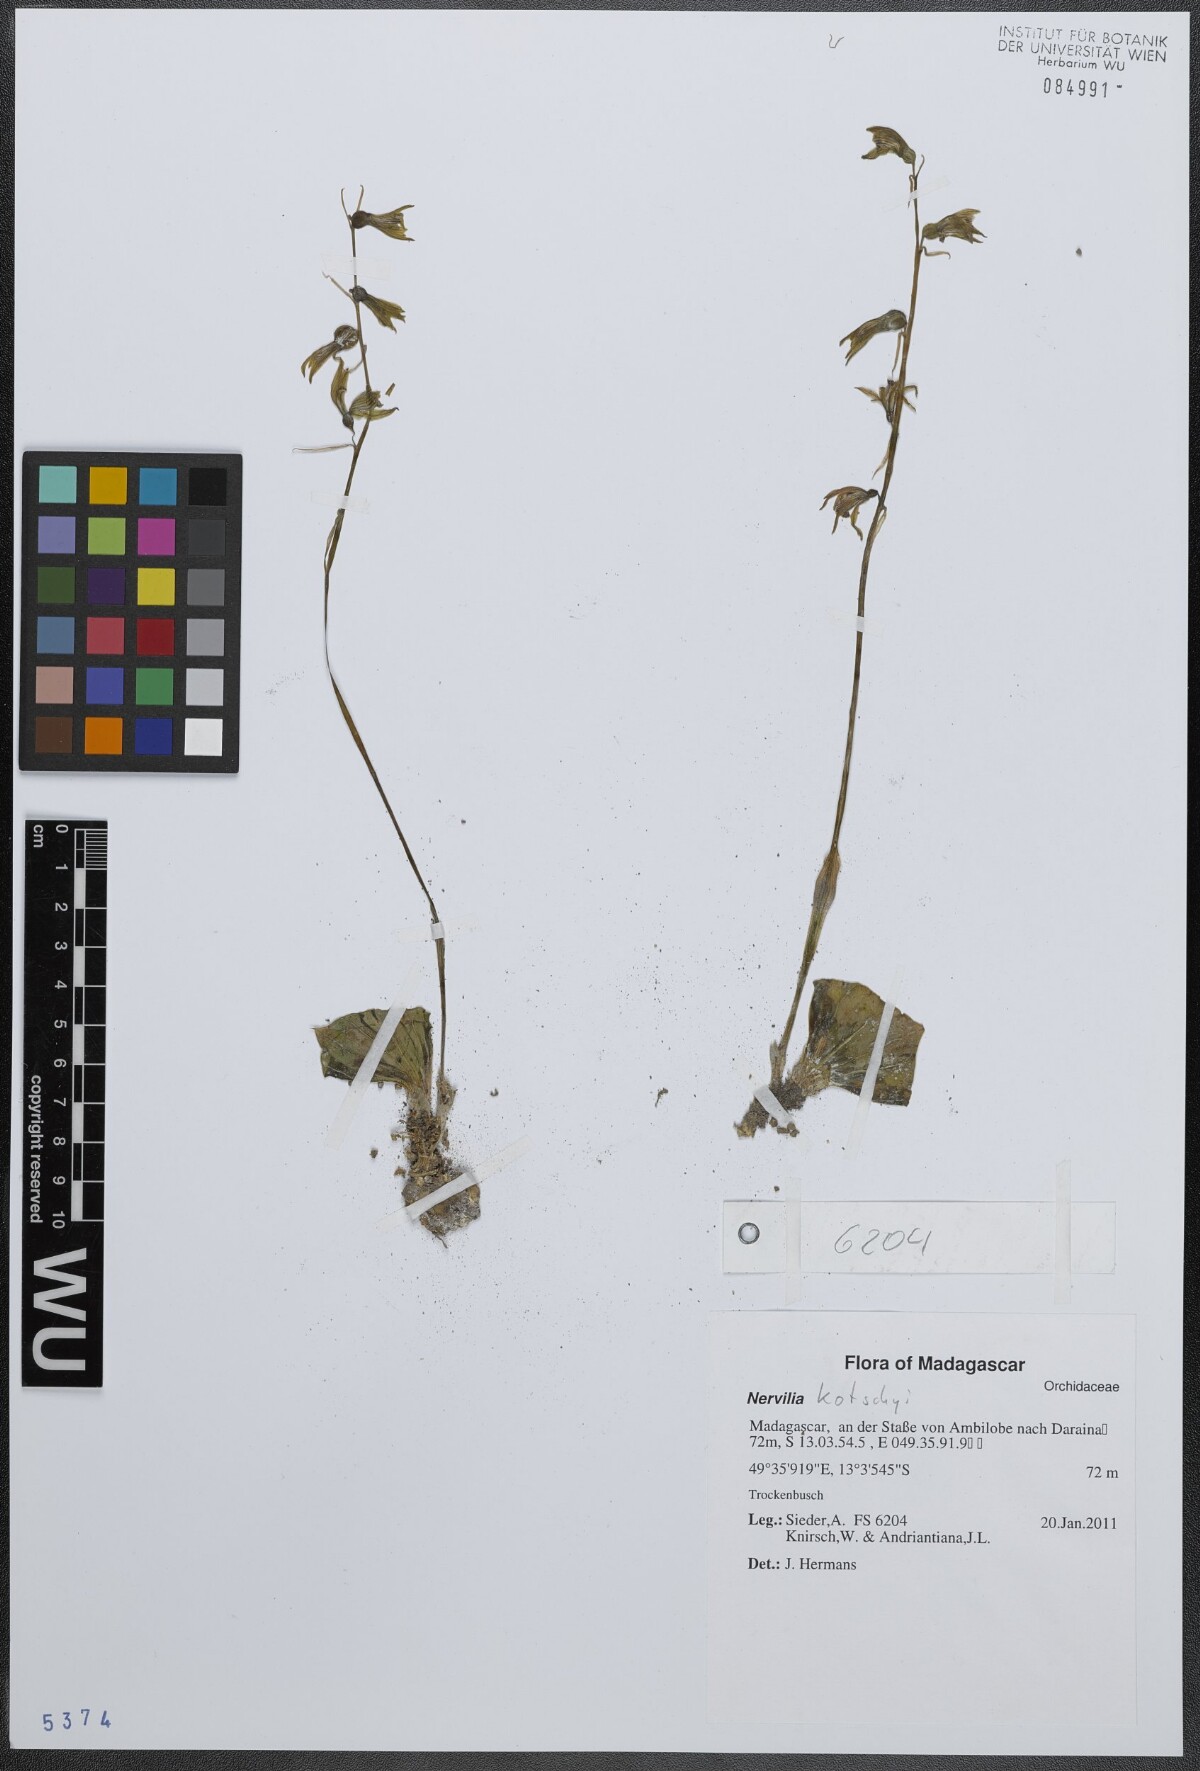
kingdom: Plantae
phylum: Tracheophyta
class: Liliopsida
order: Asparagales
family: Orchidaceae
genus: Nervilia
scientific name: Nervilia kotschyi
